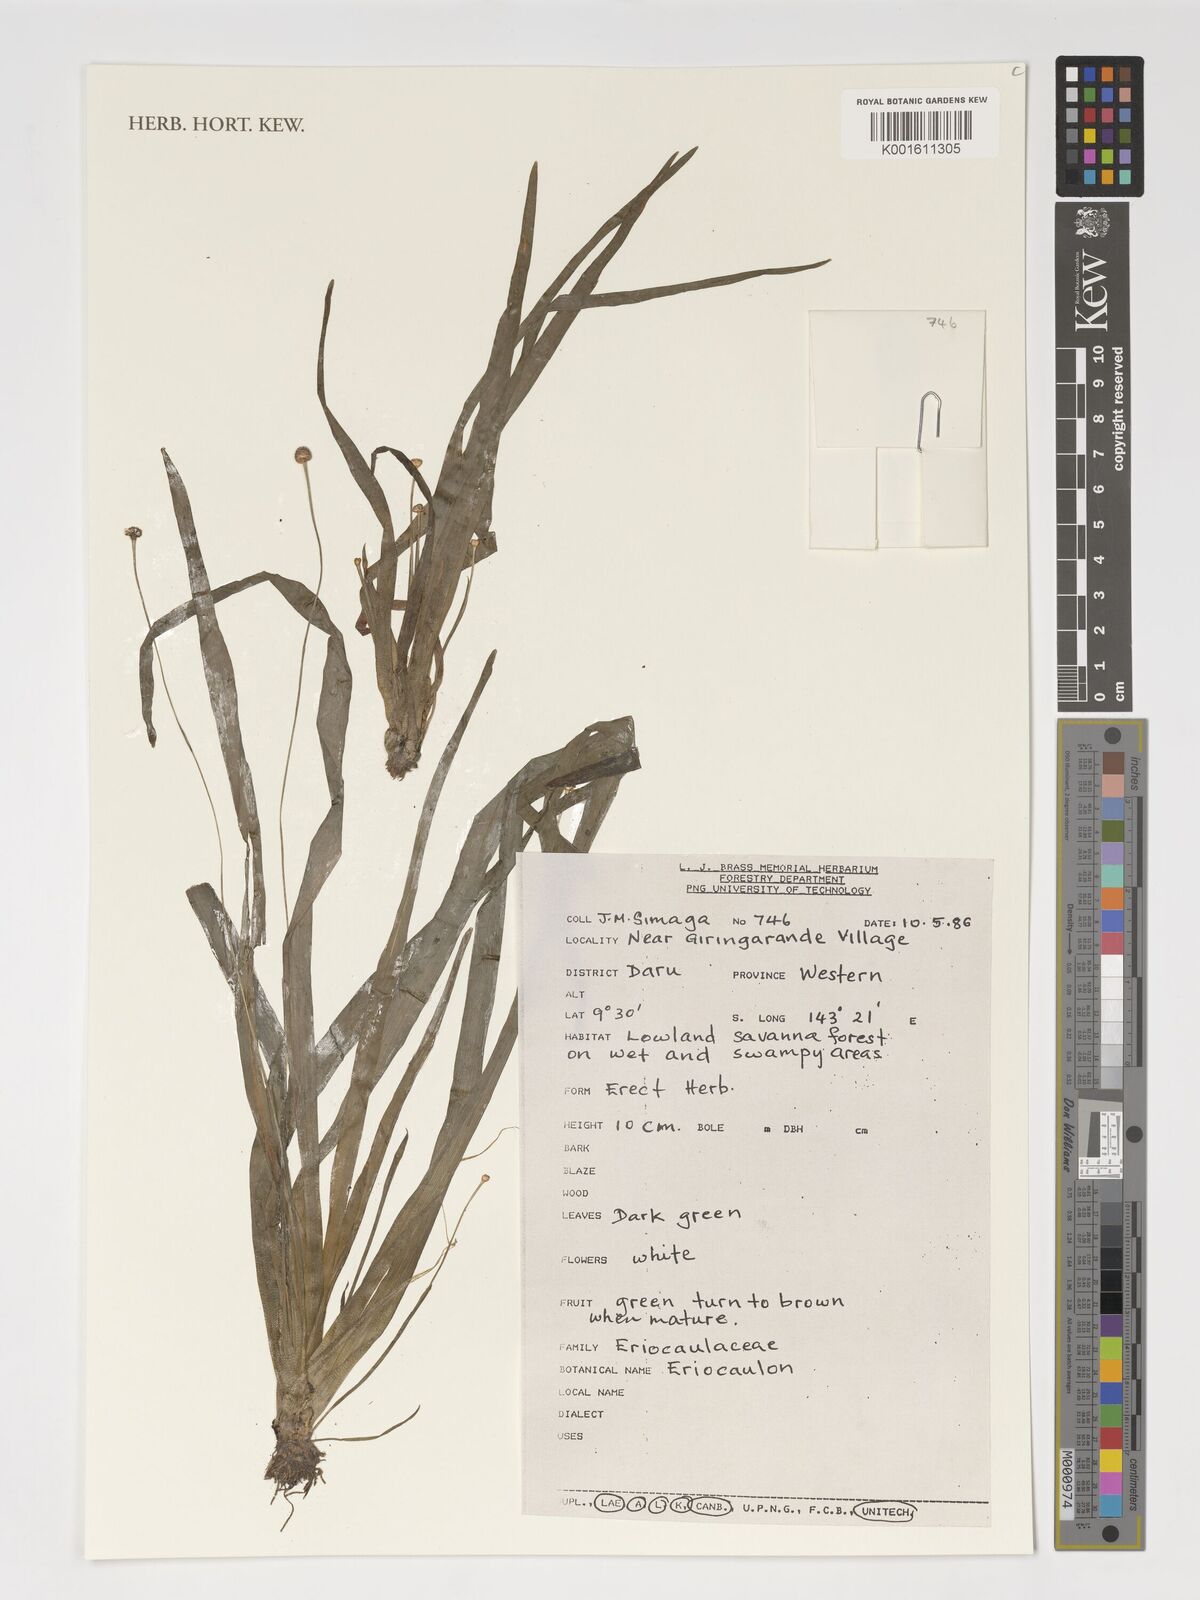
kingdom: Plantae
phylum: Tracheophyta
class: Liliopsida
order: Poales
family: Eriocaulaceae
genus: Eriocaulon
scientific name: Eriocaulon
